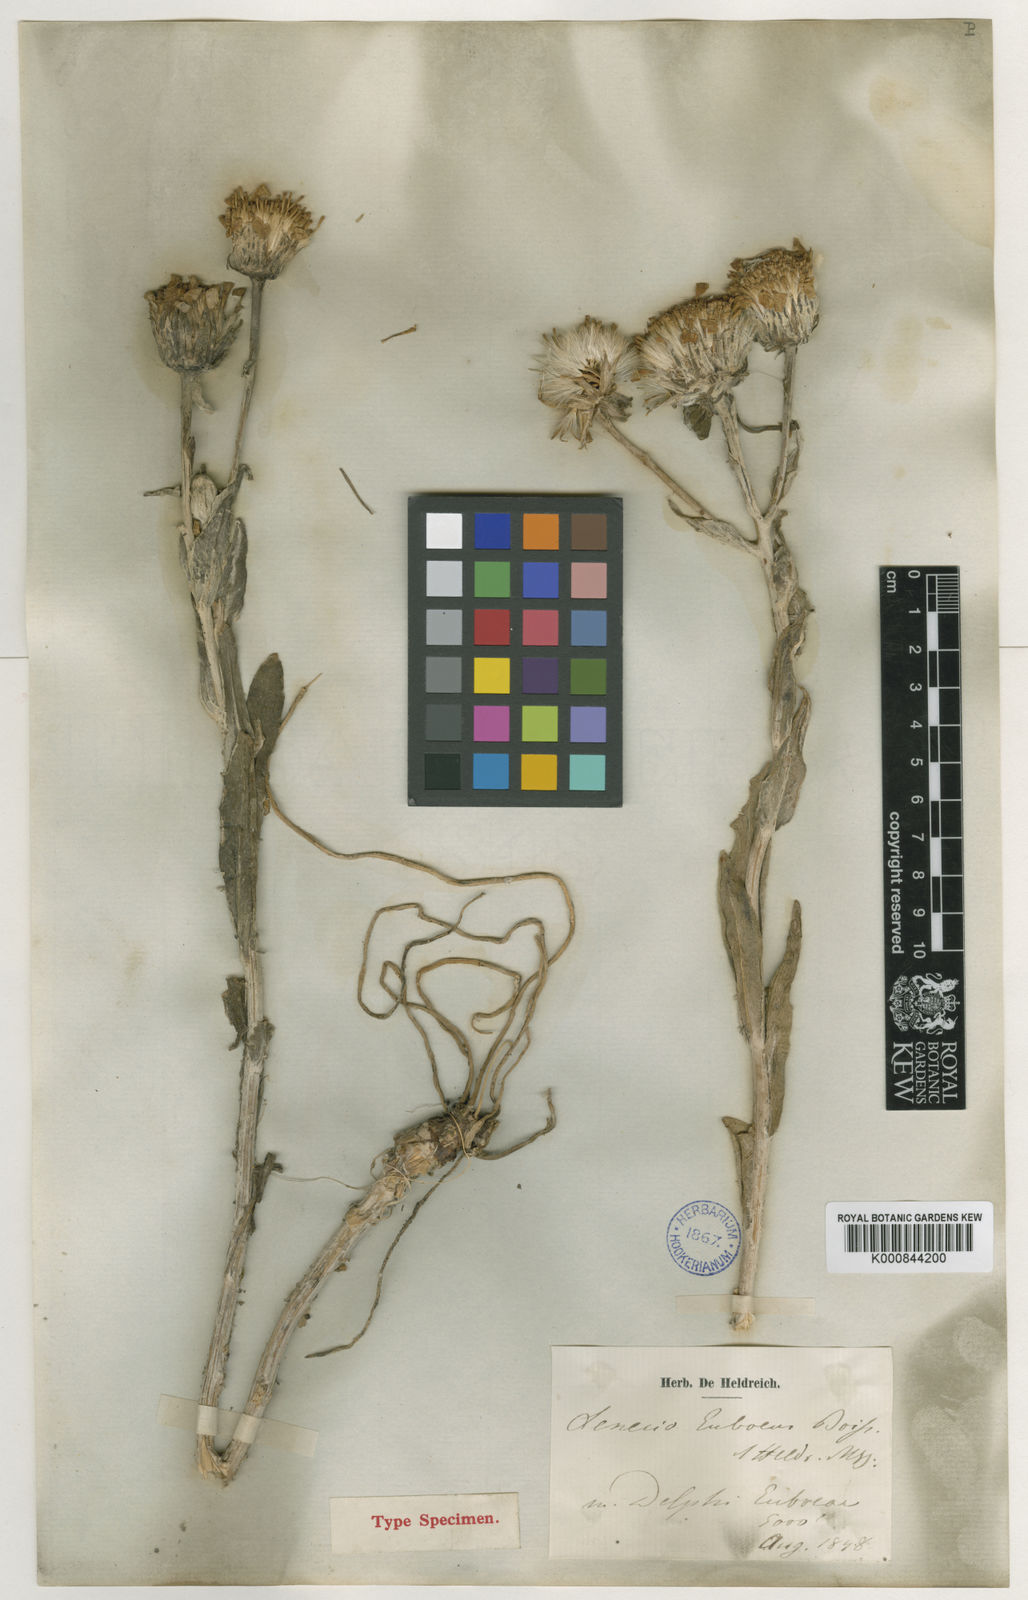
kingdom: Plantae
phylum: Tracheophyta
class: Magnoliopsida
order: Asterales
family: Asteraceae
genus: Senecio
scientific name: Senecio eubaeus
